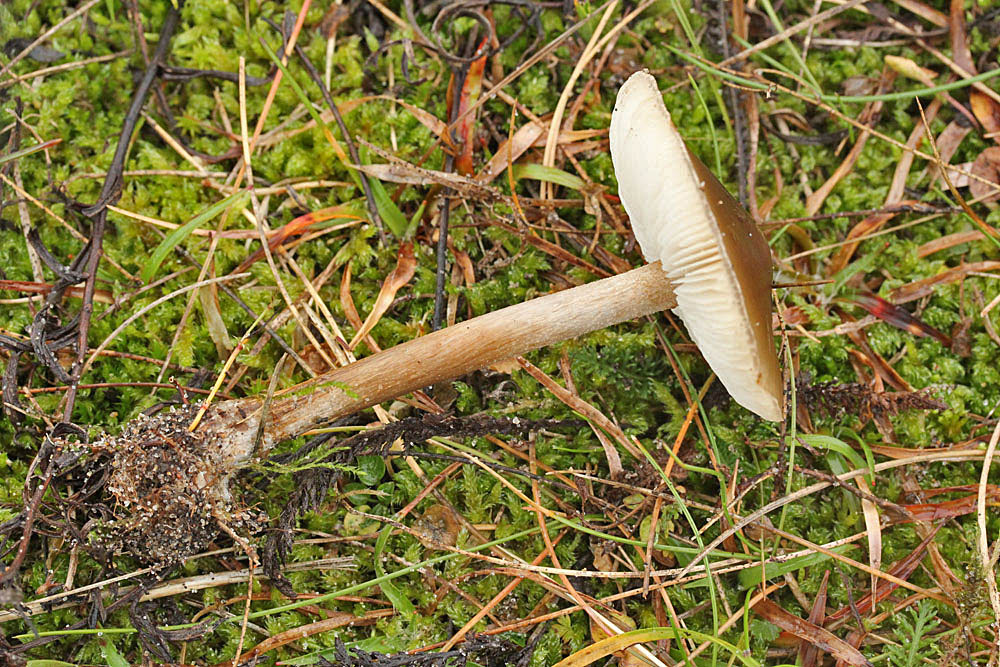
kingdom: Fungi
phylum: Basidiomycota
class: Agaricomycetes
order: Agaricales
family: Tricholomataceae
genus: Melanoleuca
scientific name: Melanoleuca polioleuca
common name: hvidbladet munkehat
